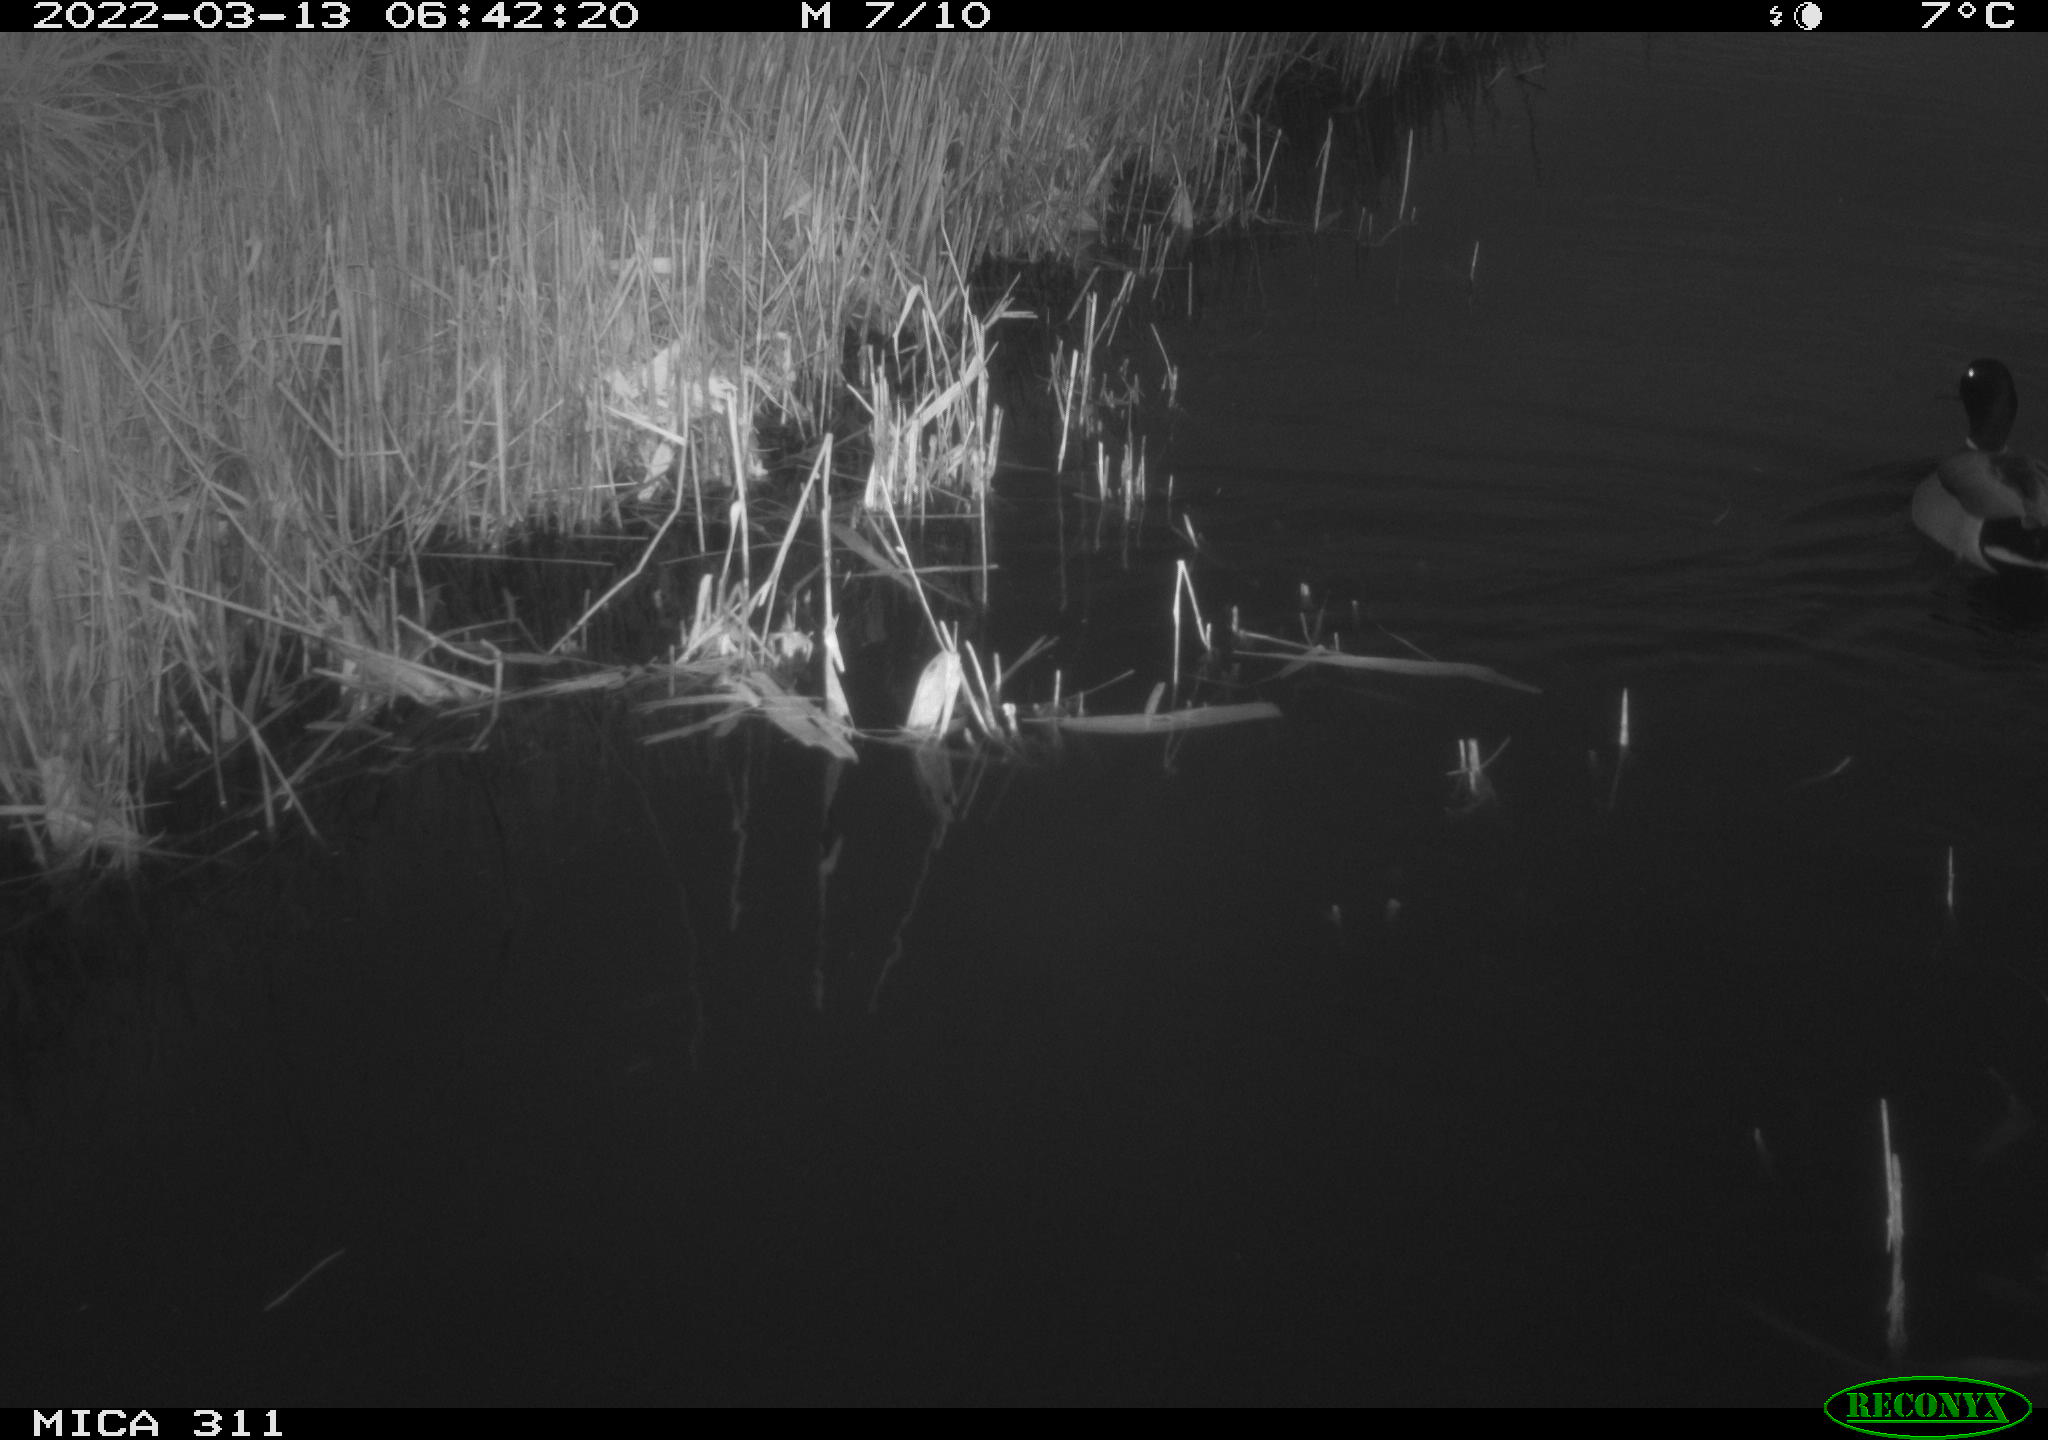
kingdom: Animalia
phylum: Chordata
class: Aves
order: Anseriformes
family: Anatidae
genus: Anas
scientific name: Anas
